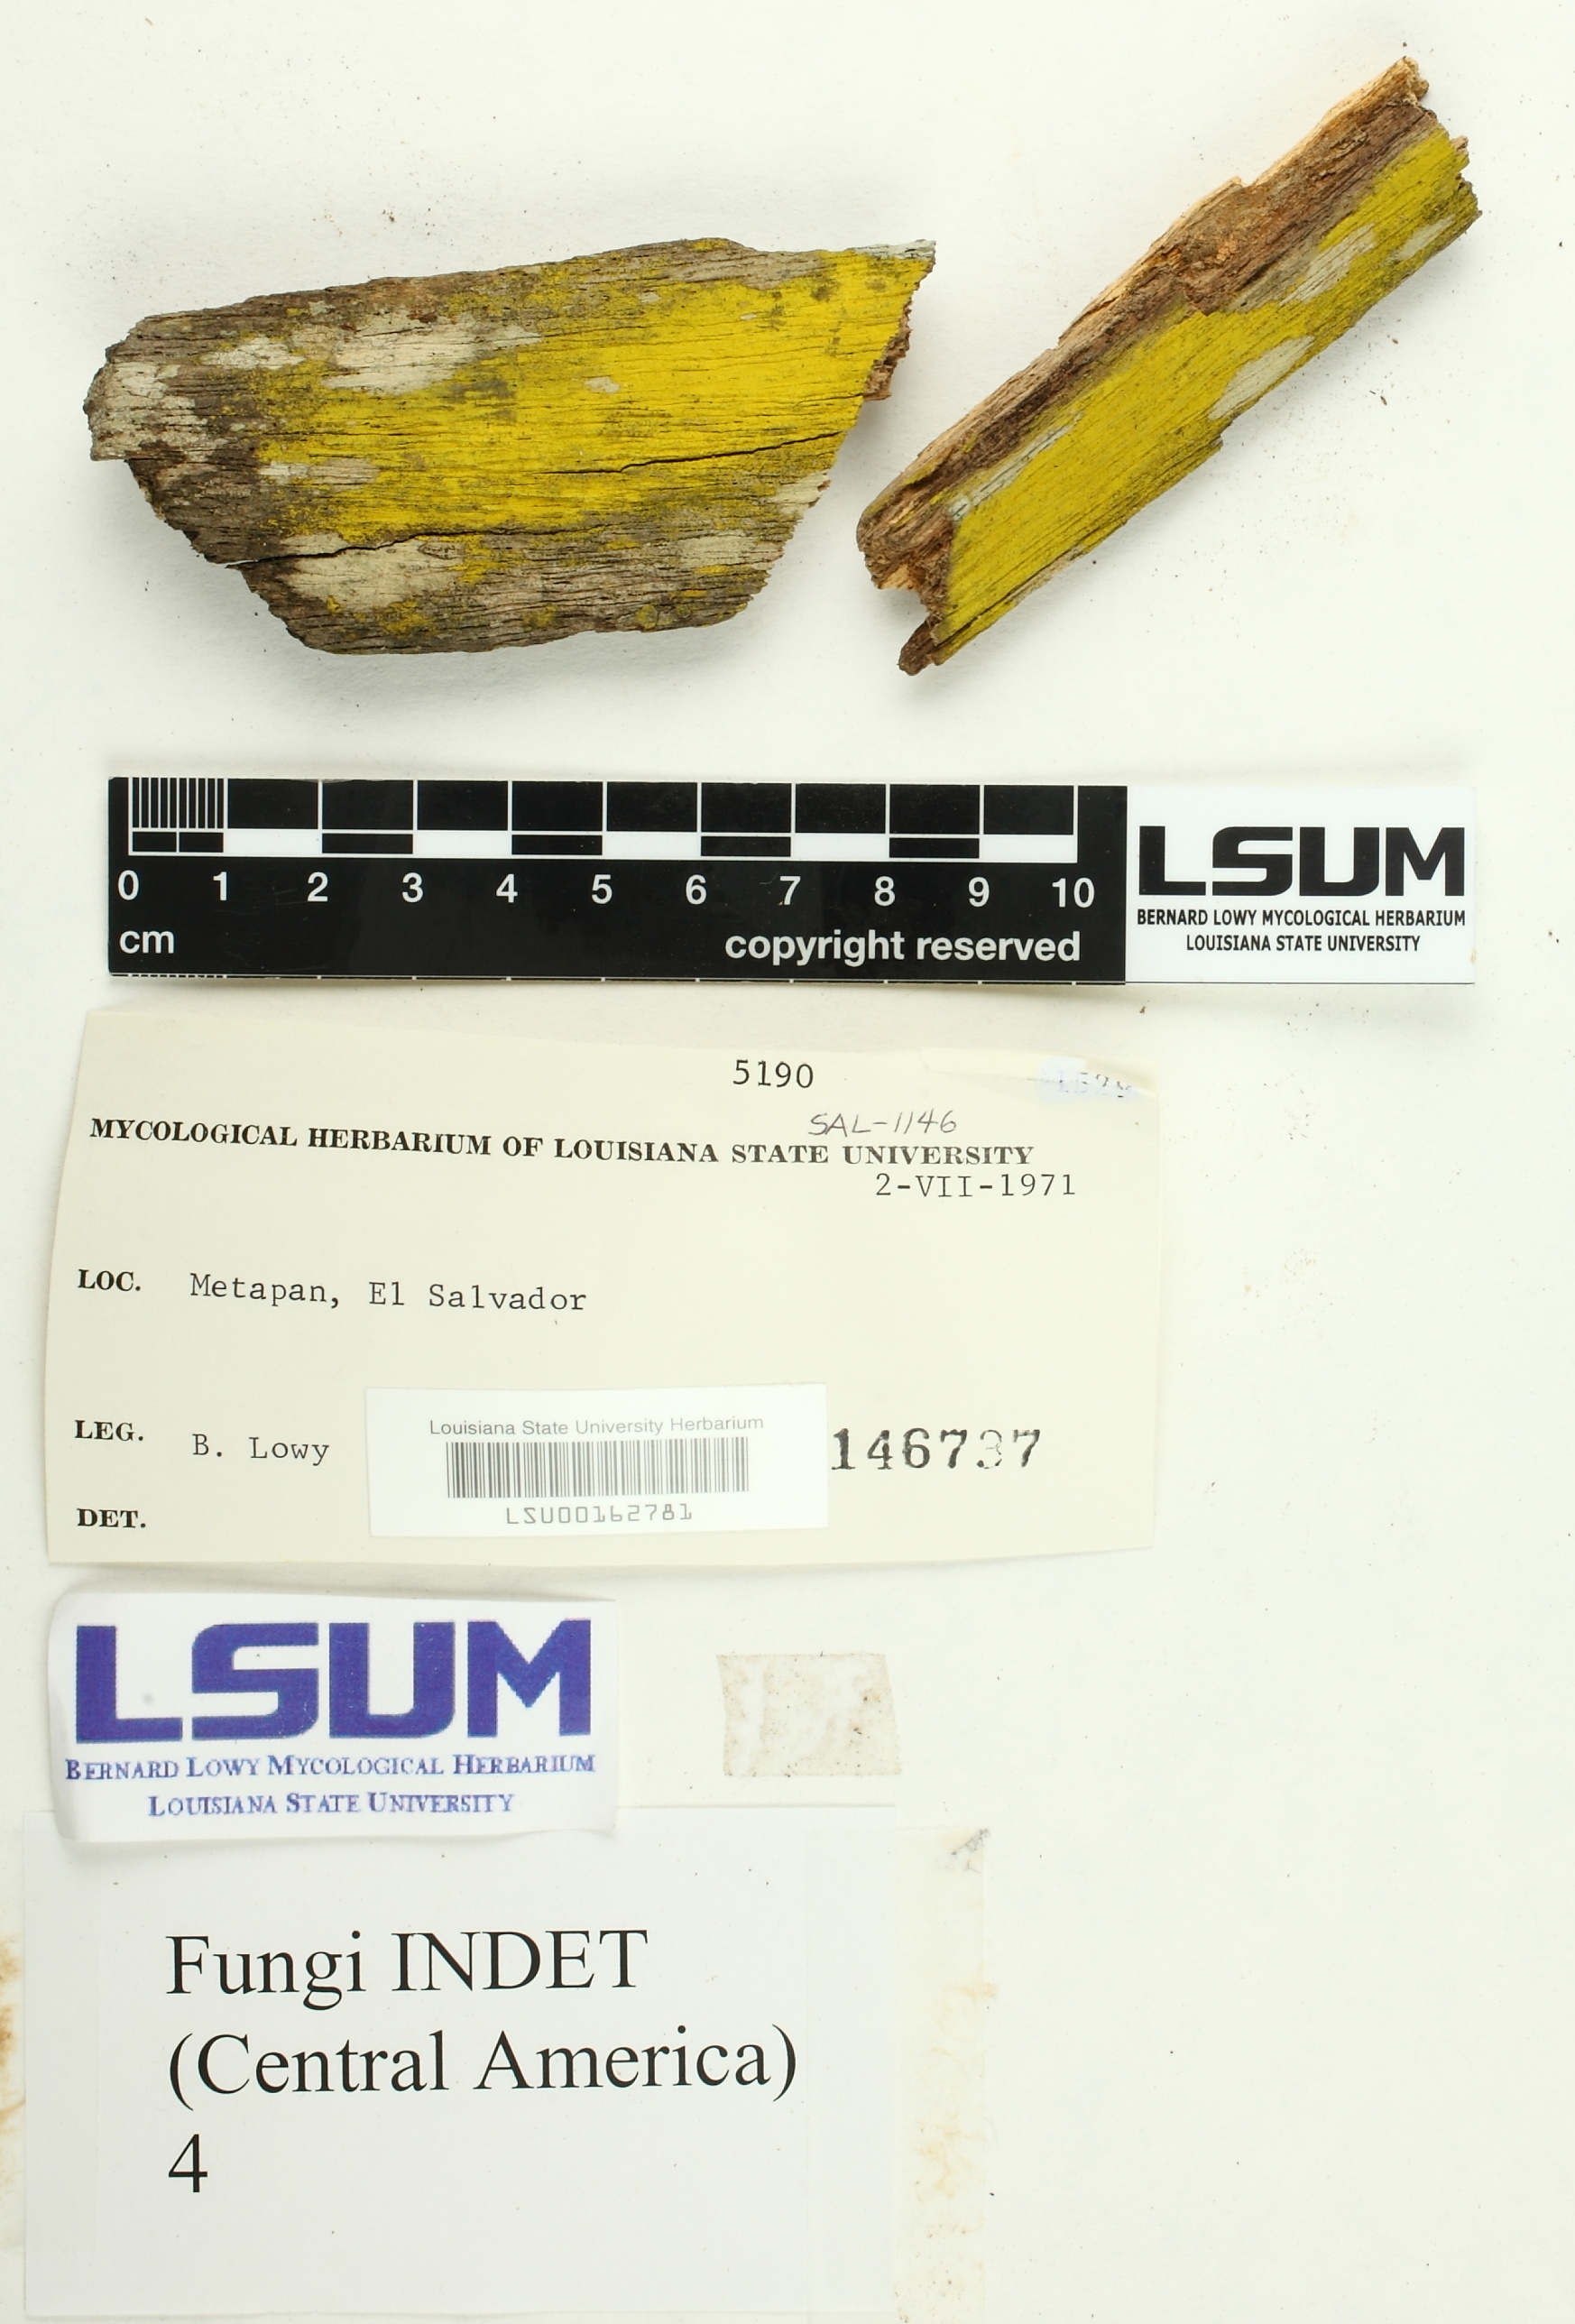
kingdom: Fungi
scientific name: Fungi
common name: Fungi
